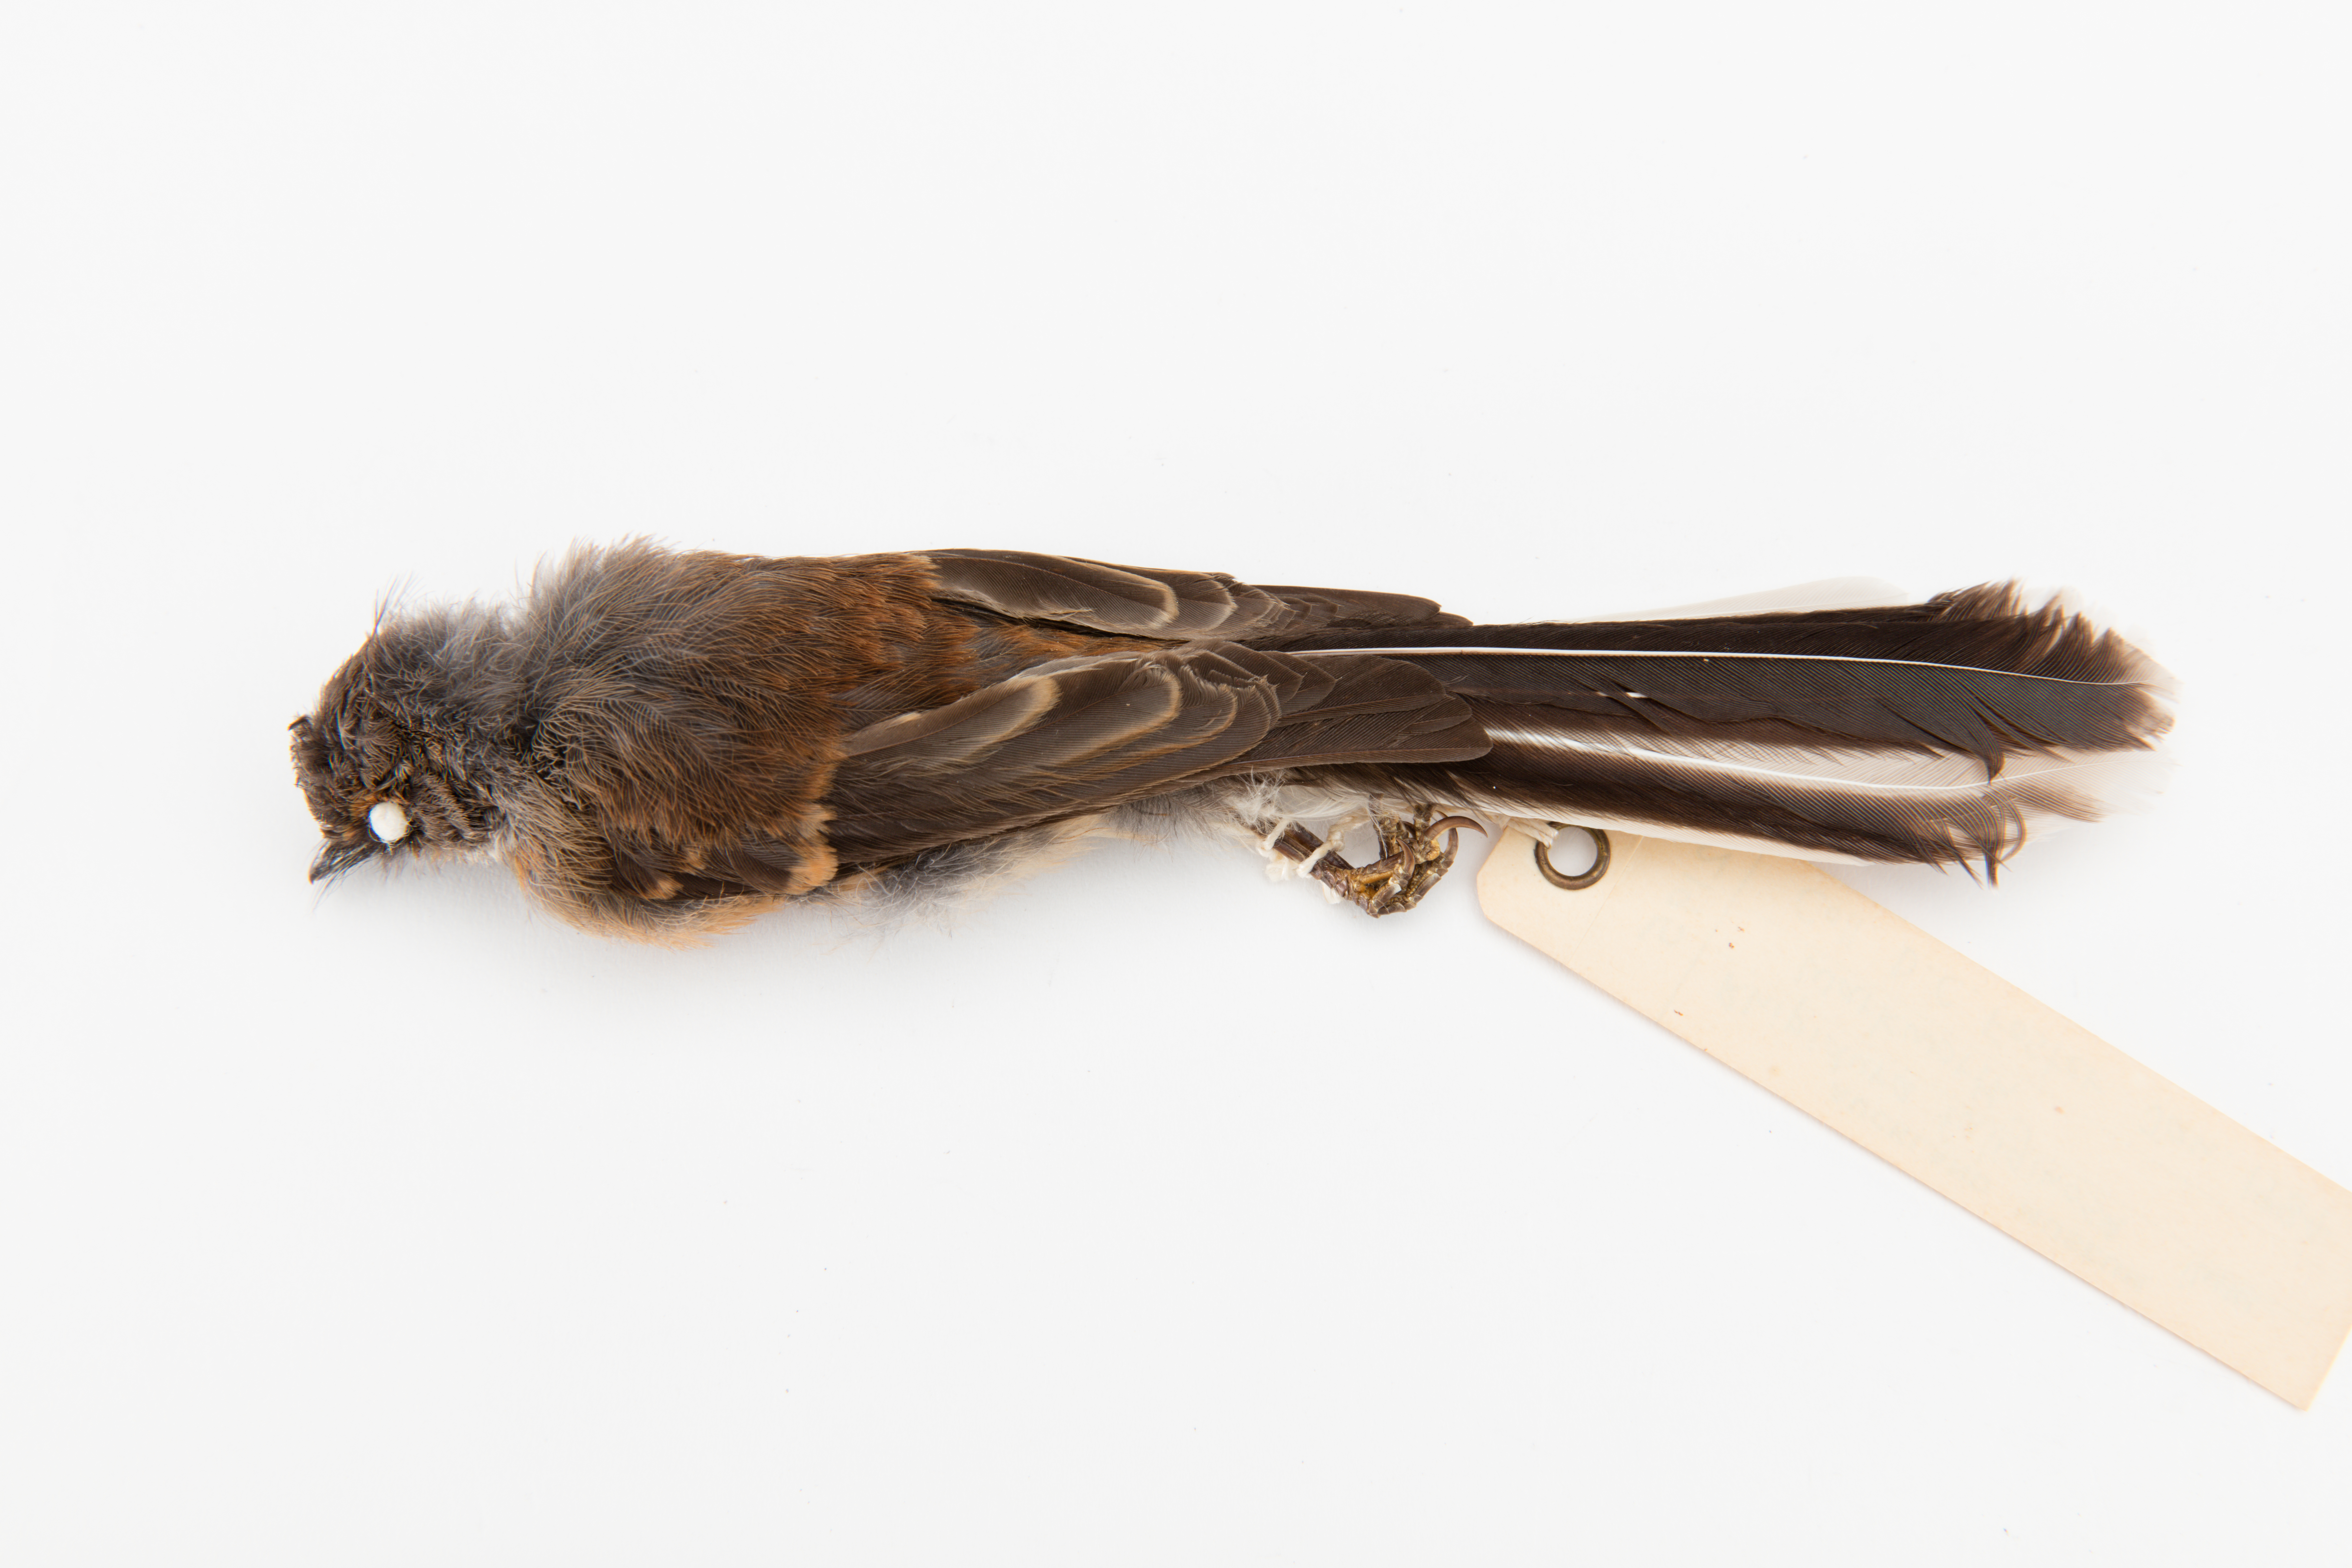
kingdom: Animalia
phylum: Chordata
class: Aves
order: Passeriformes
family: Rhipiduridae
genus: Rhipidura
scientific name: Rhipidura fuliginosa
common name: New zealand fantail
